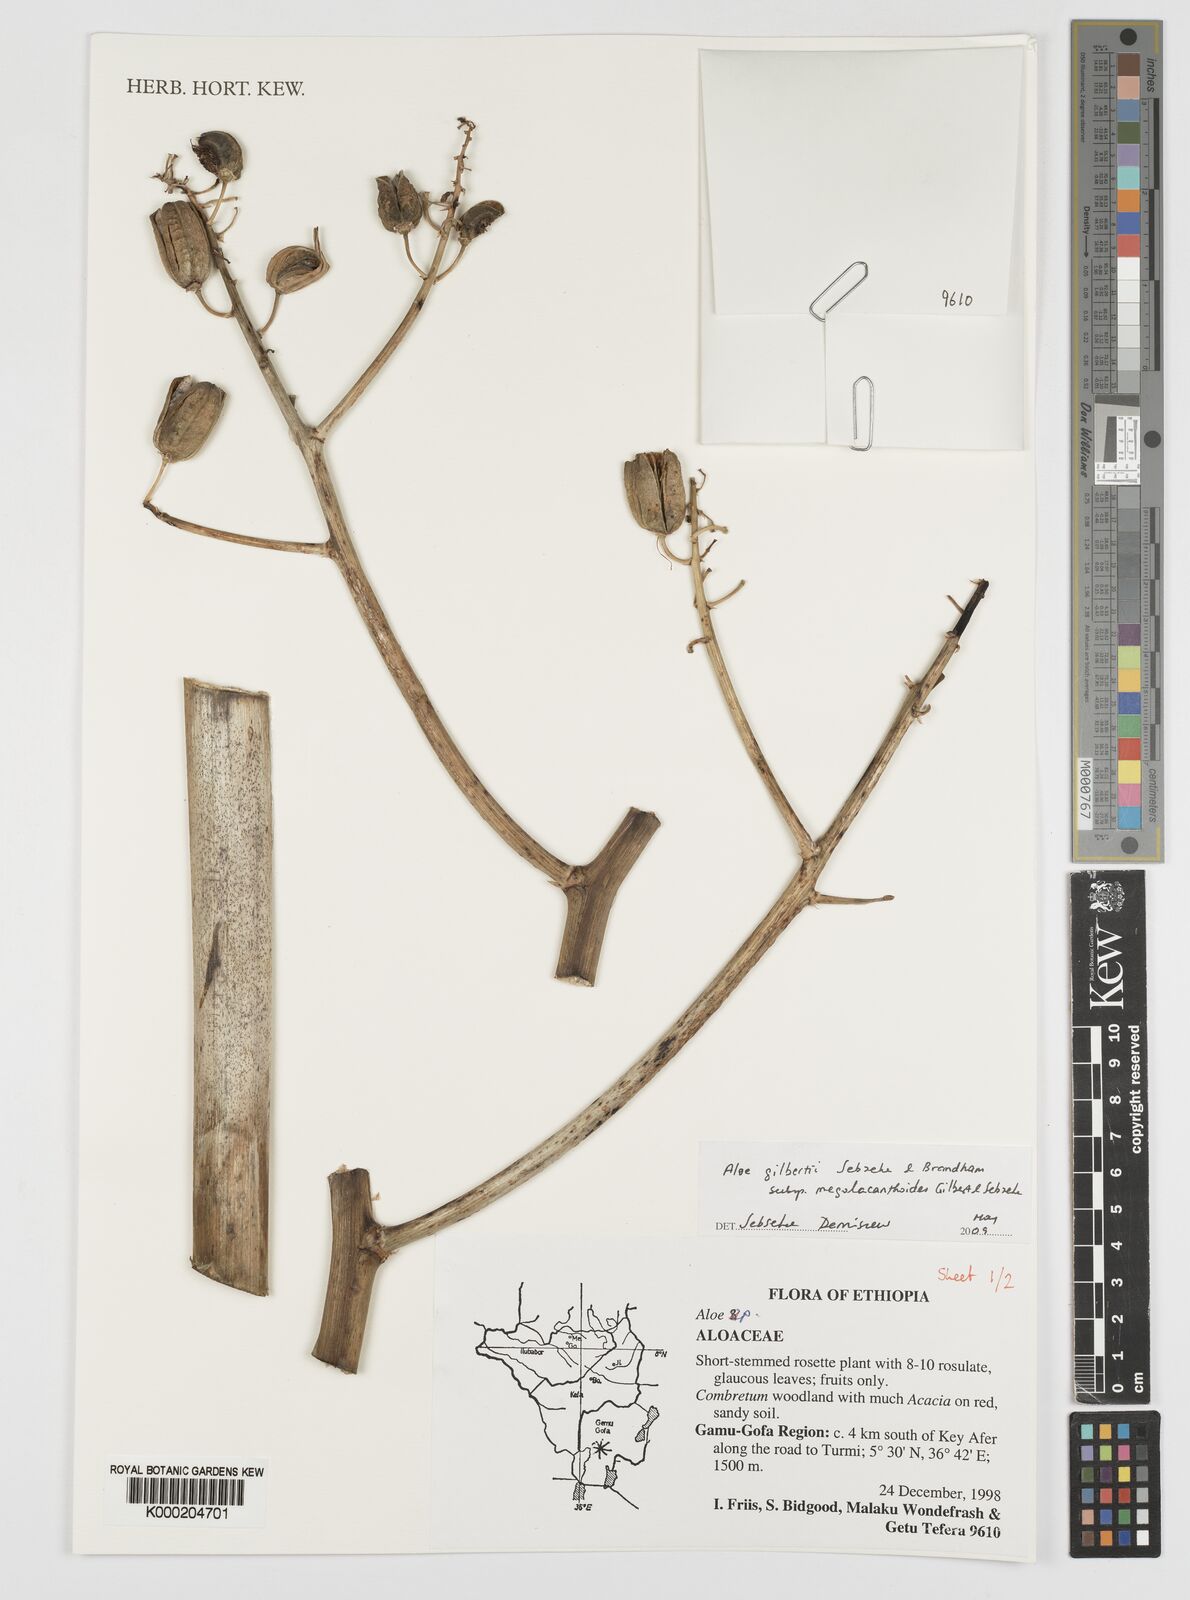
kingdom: Plantae
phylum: Tracheophyta
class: Liliopsida
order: Asparagales
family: Asphodelaceae
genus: Aloe
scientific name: Aloe gilbertii
